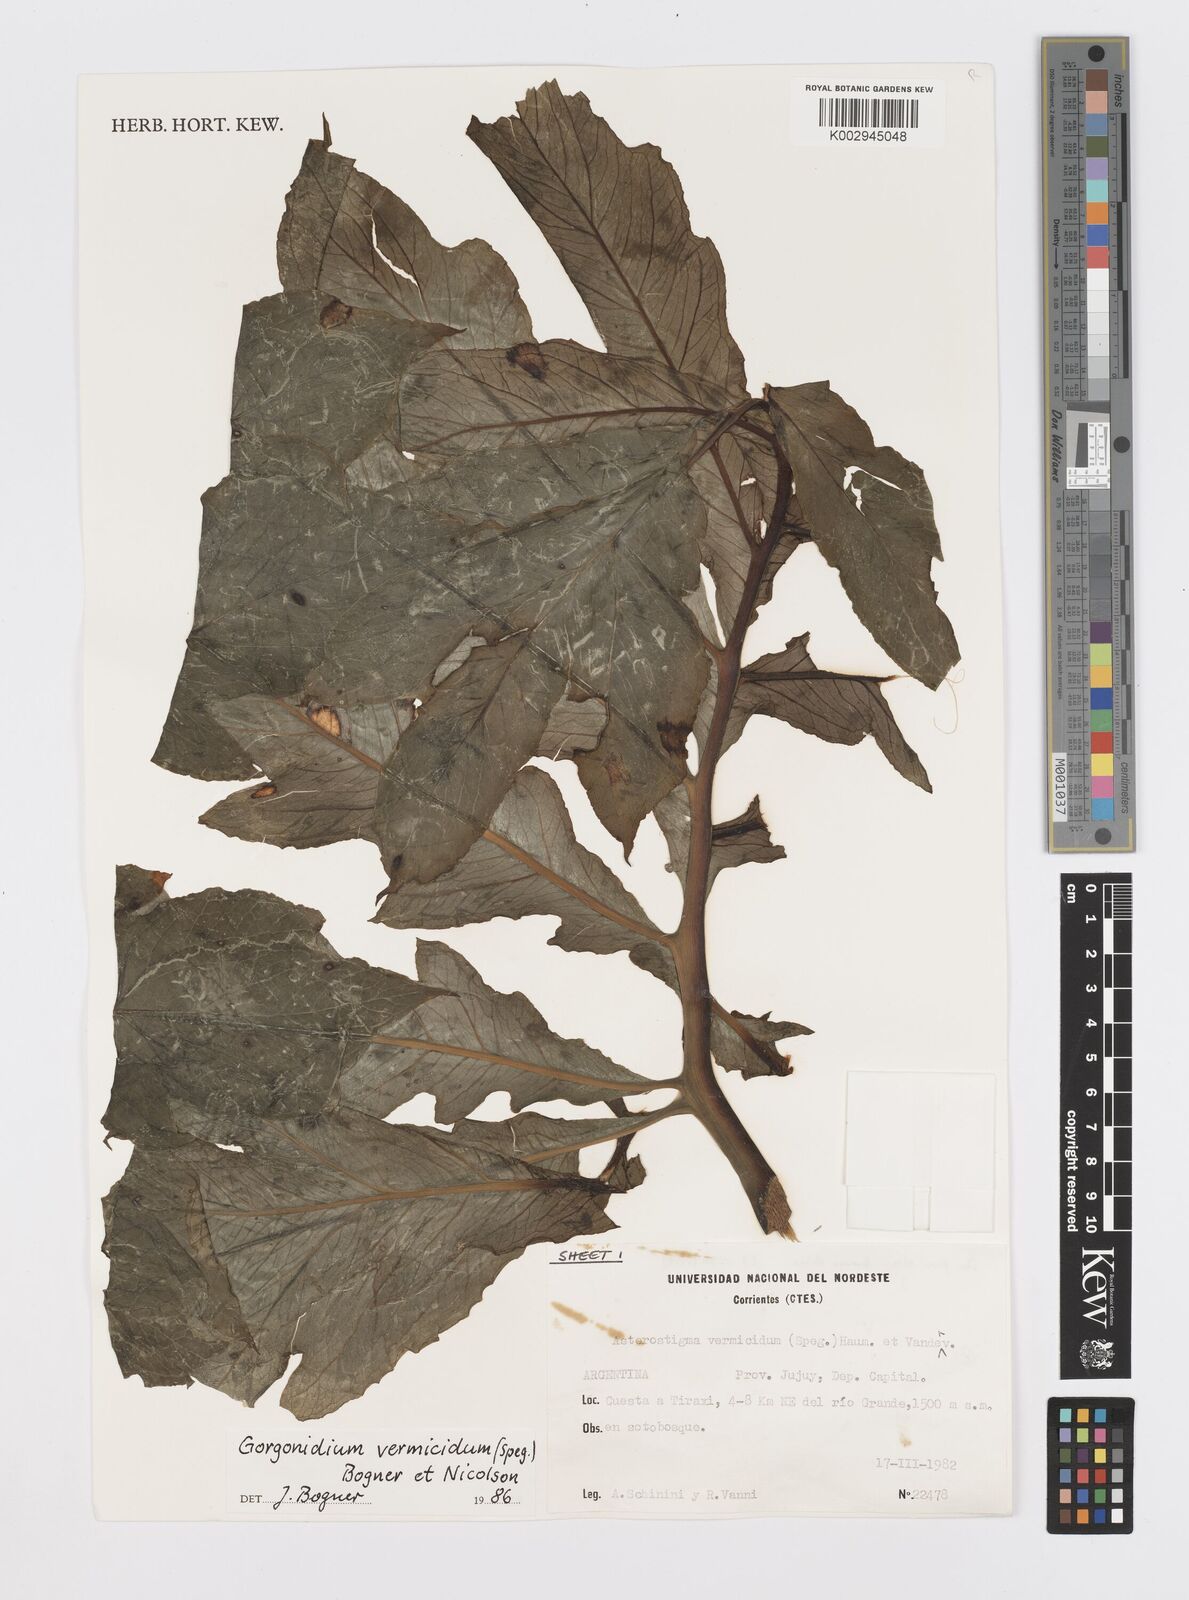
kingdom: Plantae
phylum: Tracheophyta
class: Liliopsida
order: Alismatales
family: Araceae
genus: Gorgonidium
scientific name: Gorgonidium vermicidum
